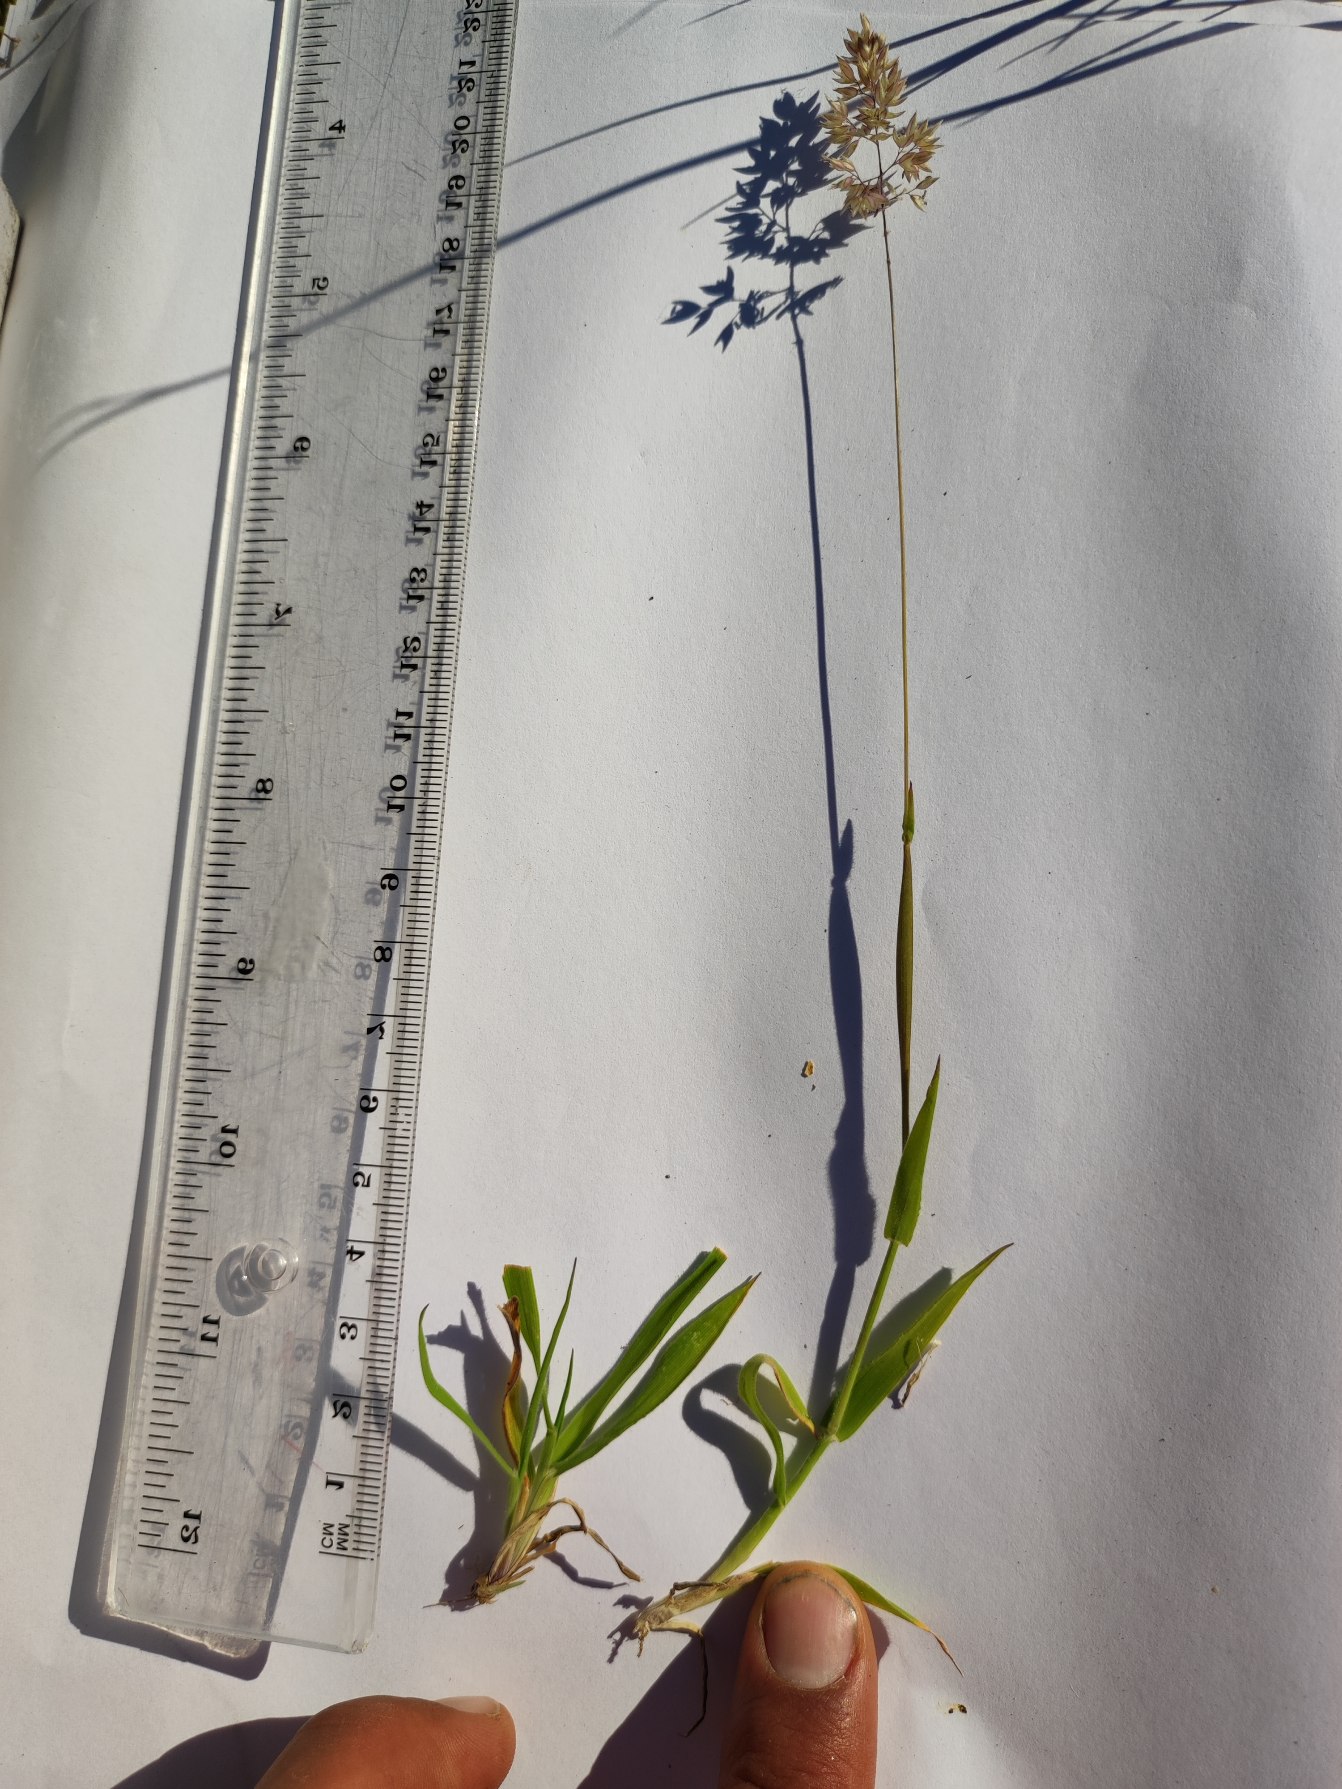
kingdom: Plantae
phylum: Tracheophyta
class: Liliopsida
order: Poales
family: Poaceae
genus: Holcus
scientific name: Holcus lanatus
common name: Fløjlsgræs
